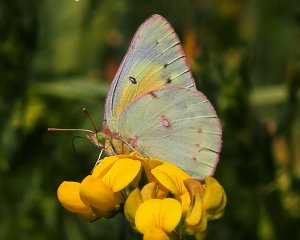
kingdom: Animalia
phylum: Arthropoda
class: Insecta
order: Lepidoptera
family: Pieridae
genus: Colias
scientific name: Colias eurytheme
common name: Orange Sulphur
